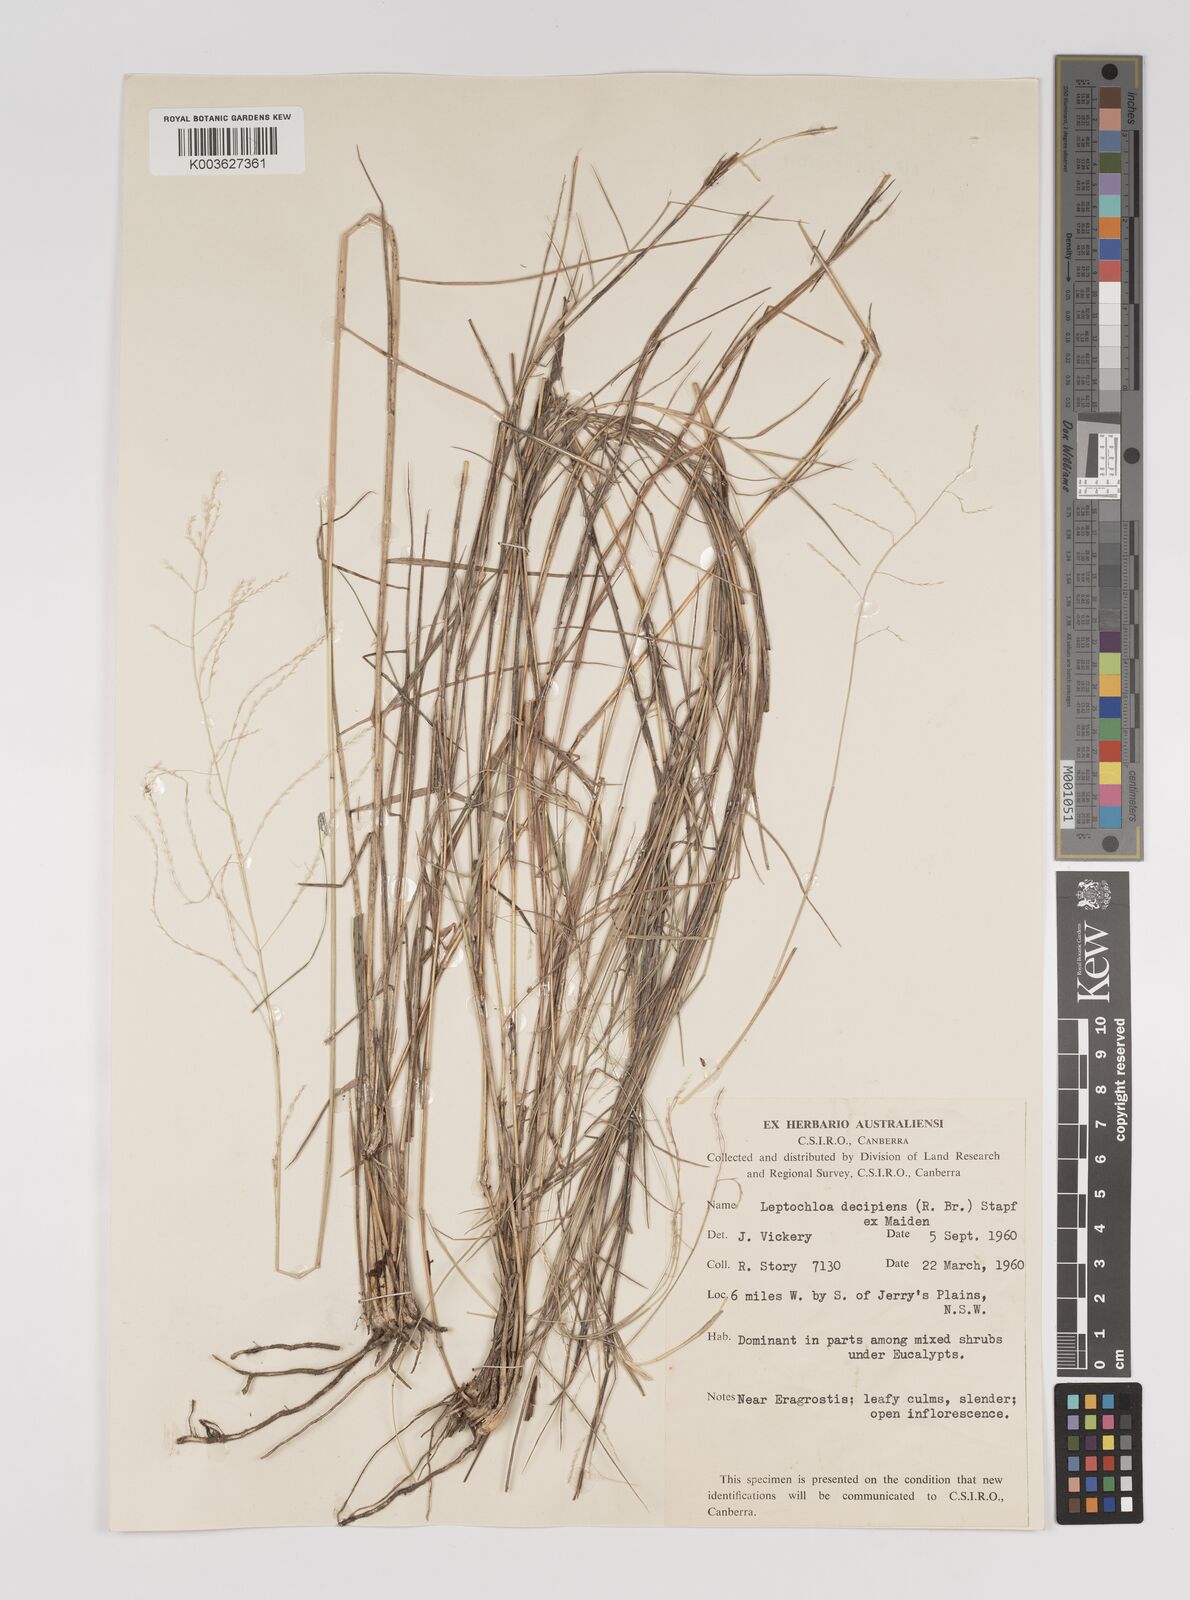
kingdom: Plantae
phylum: Tracheophyta
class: Liliopsida
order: Poales
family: Poaceae
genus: Leptochloa
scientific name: Leptochloa decipiens
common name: Australian sprangletop
